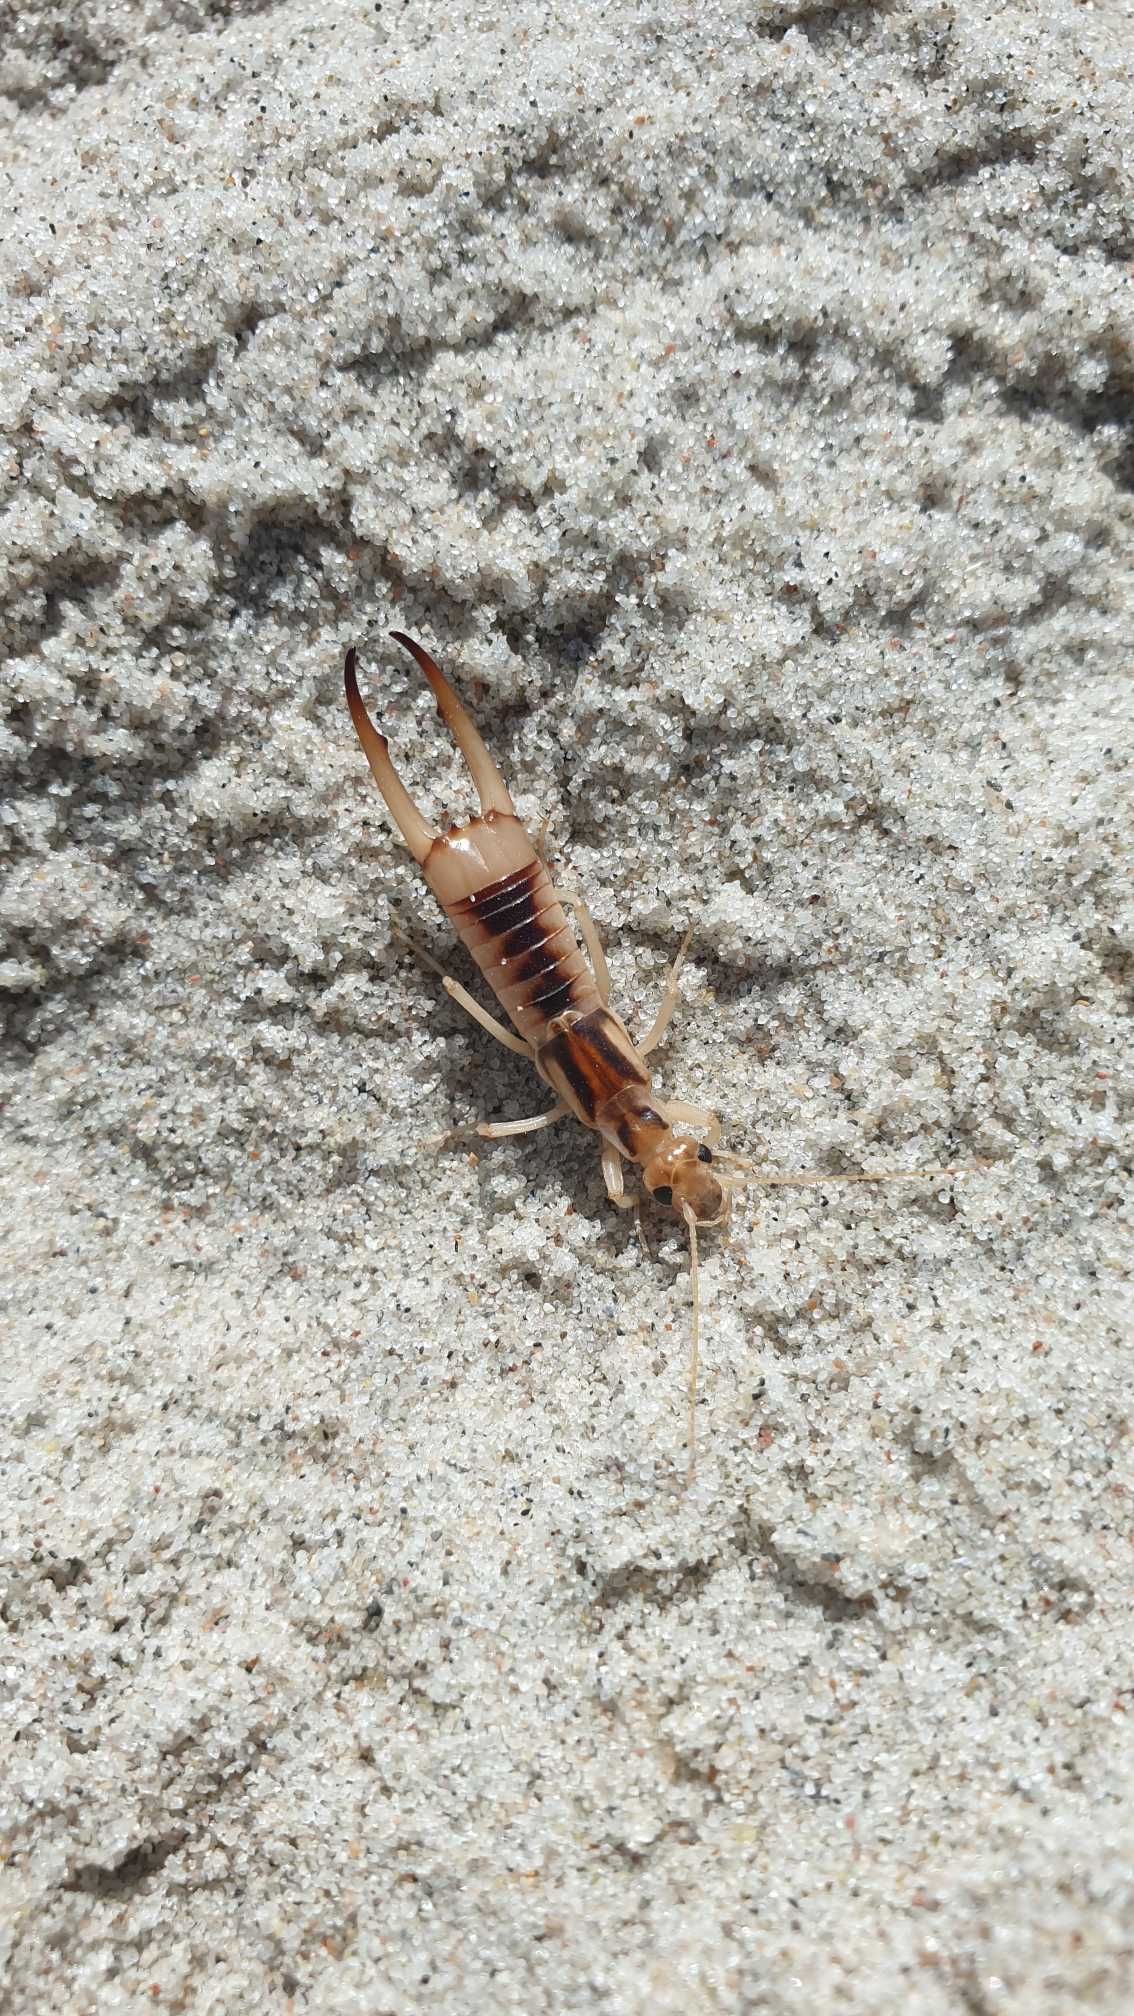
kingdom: Animalia
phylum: Arthropoda
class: Insecta
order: Dermaptera
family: Labiduridae
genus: Labidura
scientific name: Labidura riparia
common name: Sandørentvist
